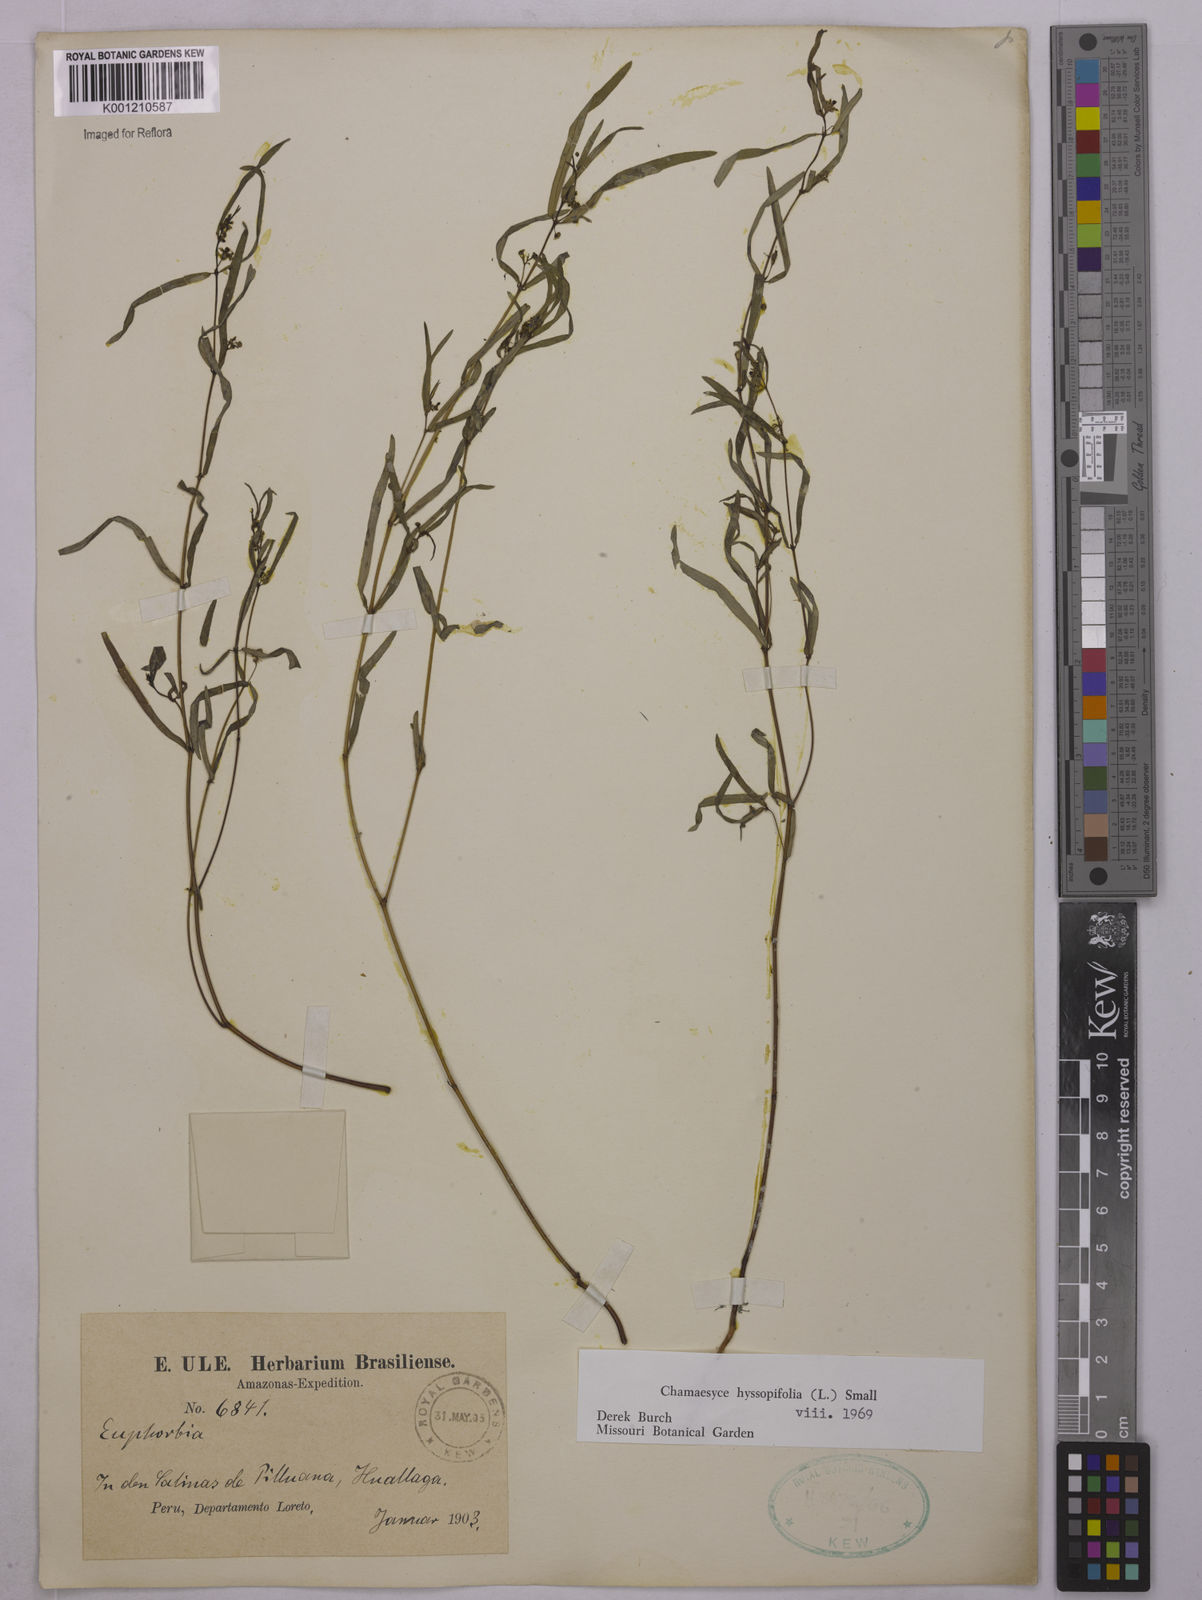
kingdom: Plantae
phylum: Tracheophyta
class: Magnoliopsida
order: Malpighiales
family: Euphorbiaceae
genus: Euphorbia
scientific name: Euphorbia hyssopifolia
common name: Hyssopleaf sandmat
